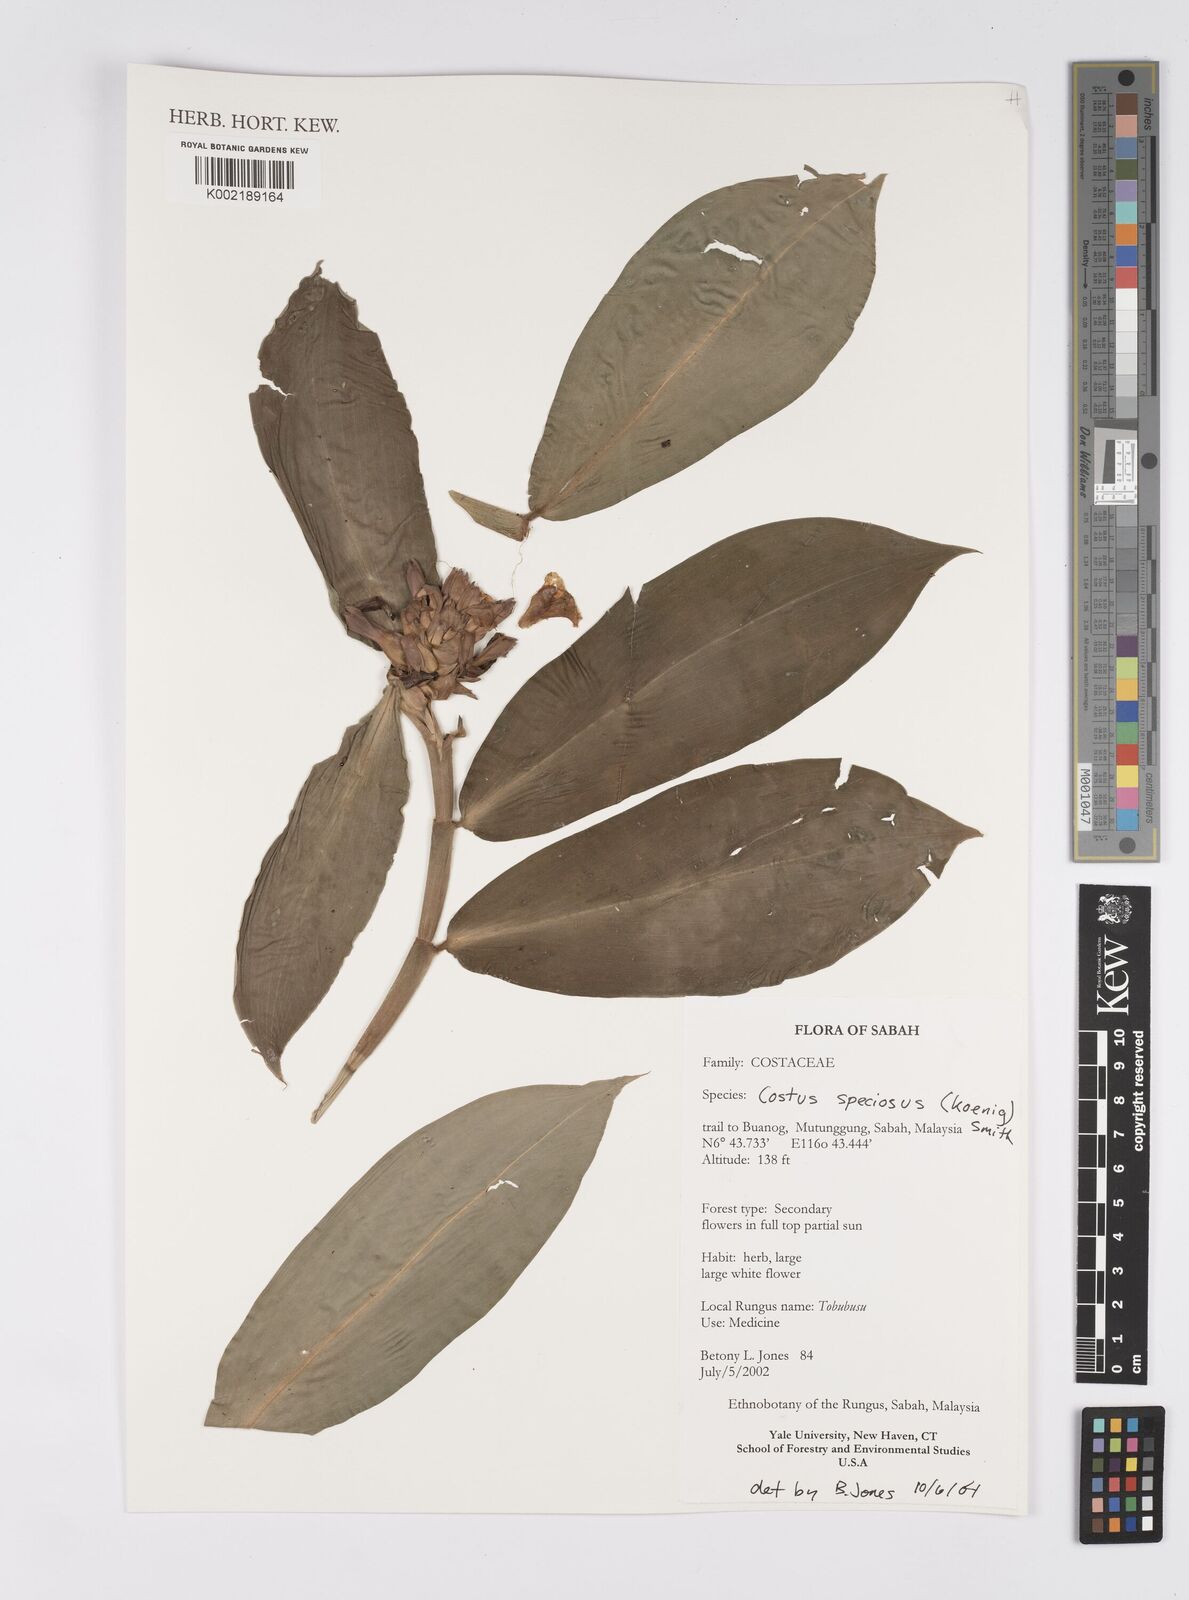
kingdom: Plantae
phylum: Tracheophyta
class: Liliopsida
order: Zingiberales
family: Costaceae
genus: Hellenia
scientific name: Hellenia speciosa
